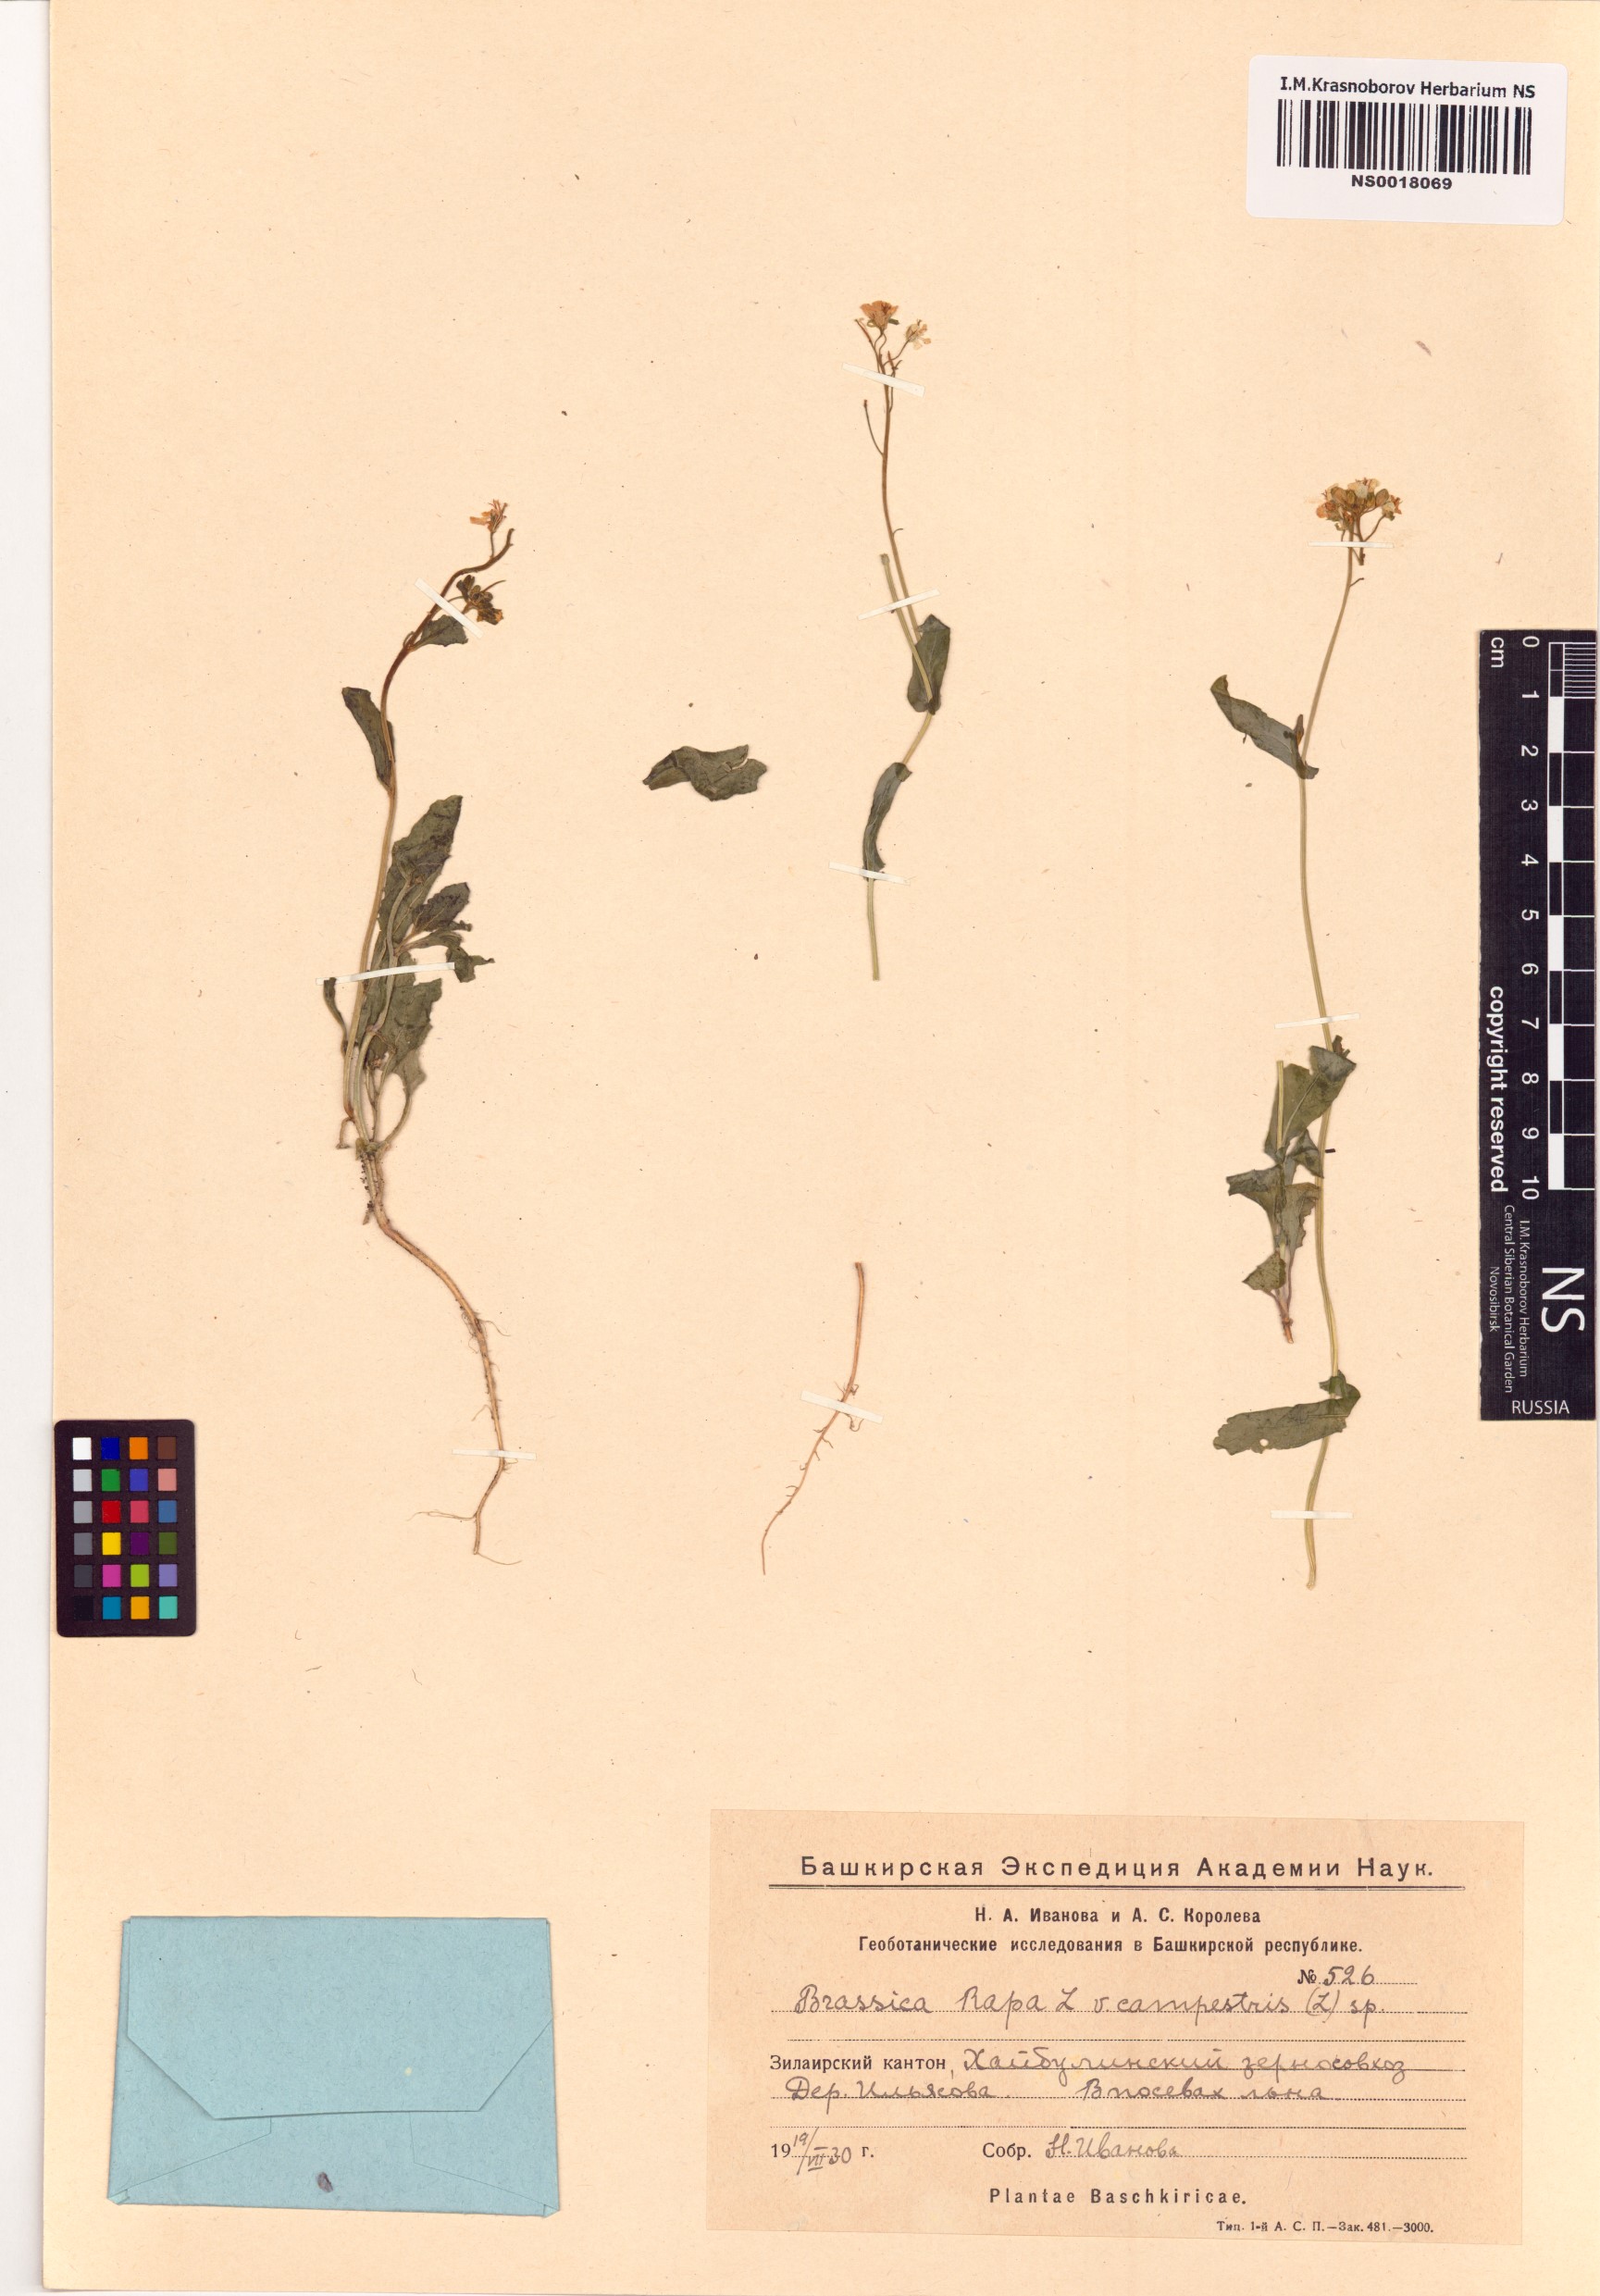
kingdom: Plantae
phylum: Tracheophyta
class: Magnoliopsida
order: Brassicales
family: Brassicaceae
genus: Brassica
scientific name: Brassica rapa
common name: Field mustard
